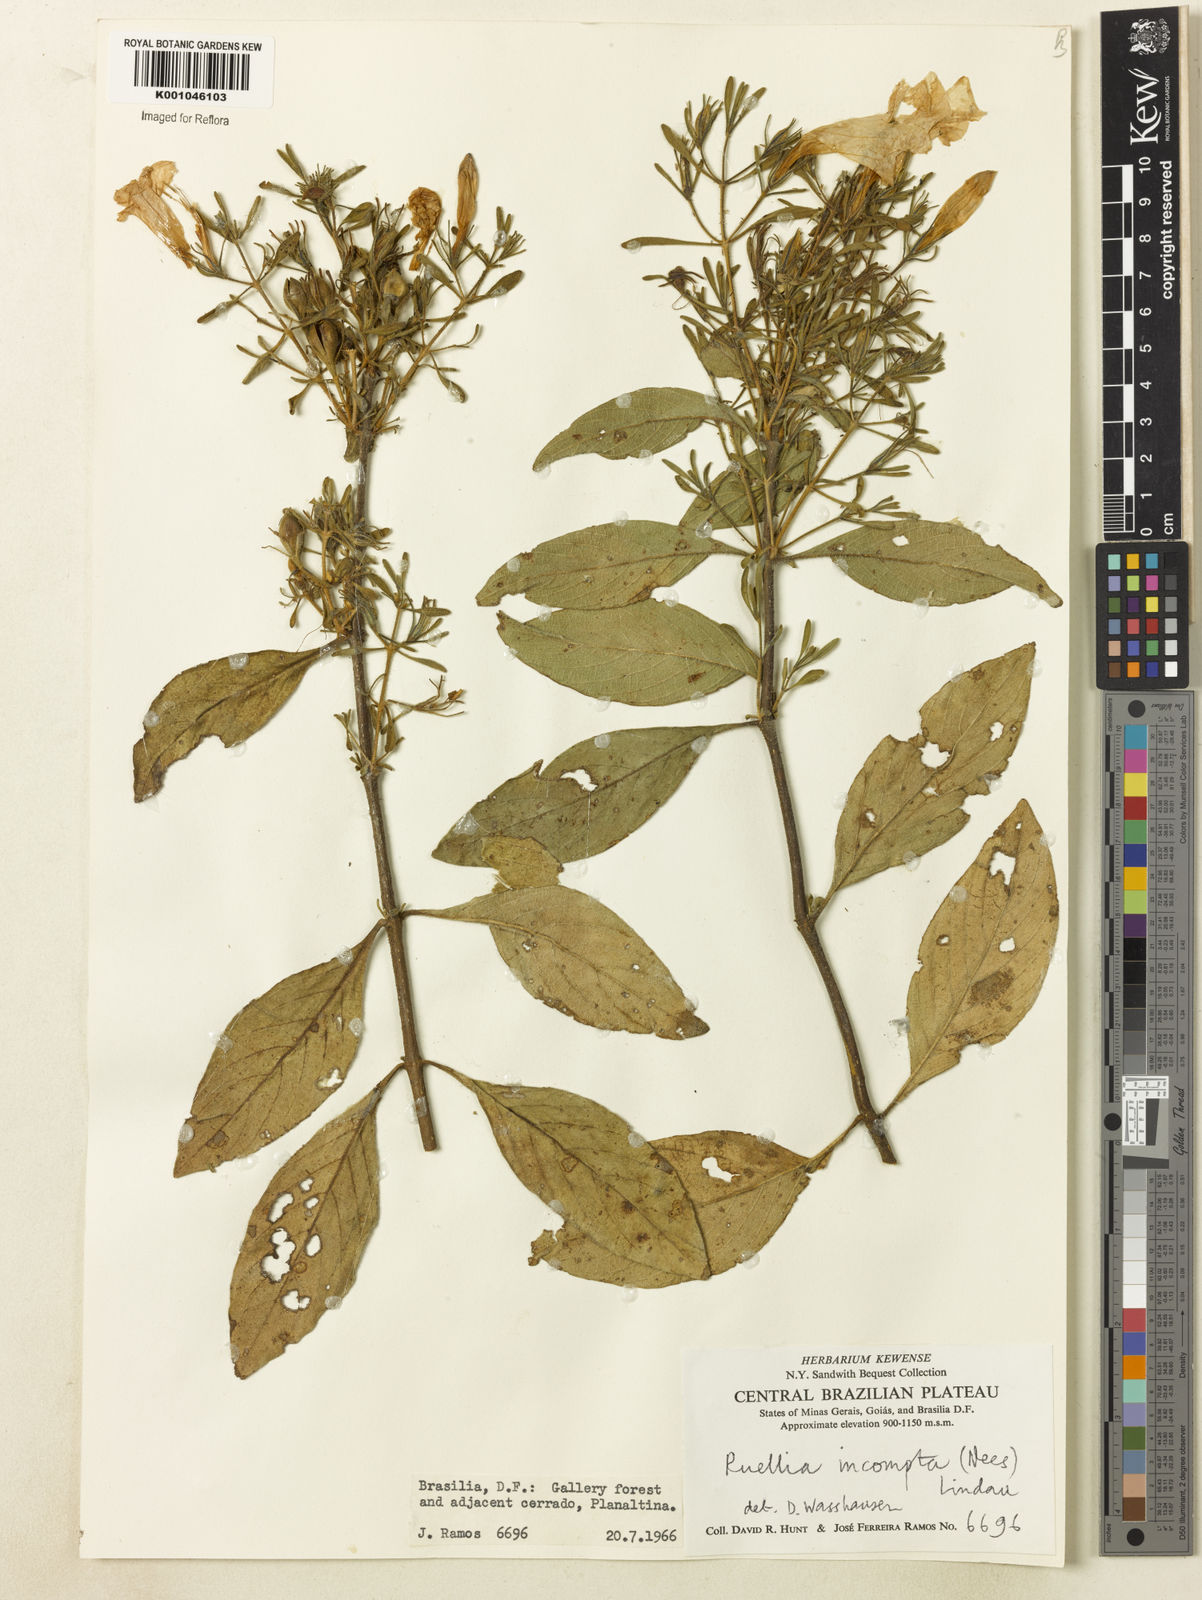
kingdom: Plantae
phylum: Tracheophyta
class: Magnoliopsida
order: Lamiales
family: Acanthaceae
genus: Ruellia
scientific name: Ruellia
